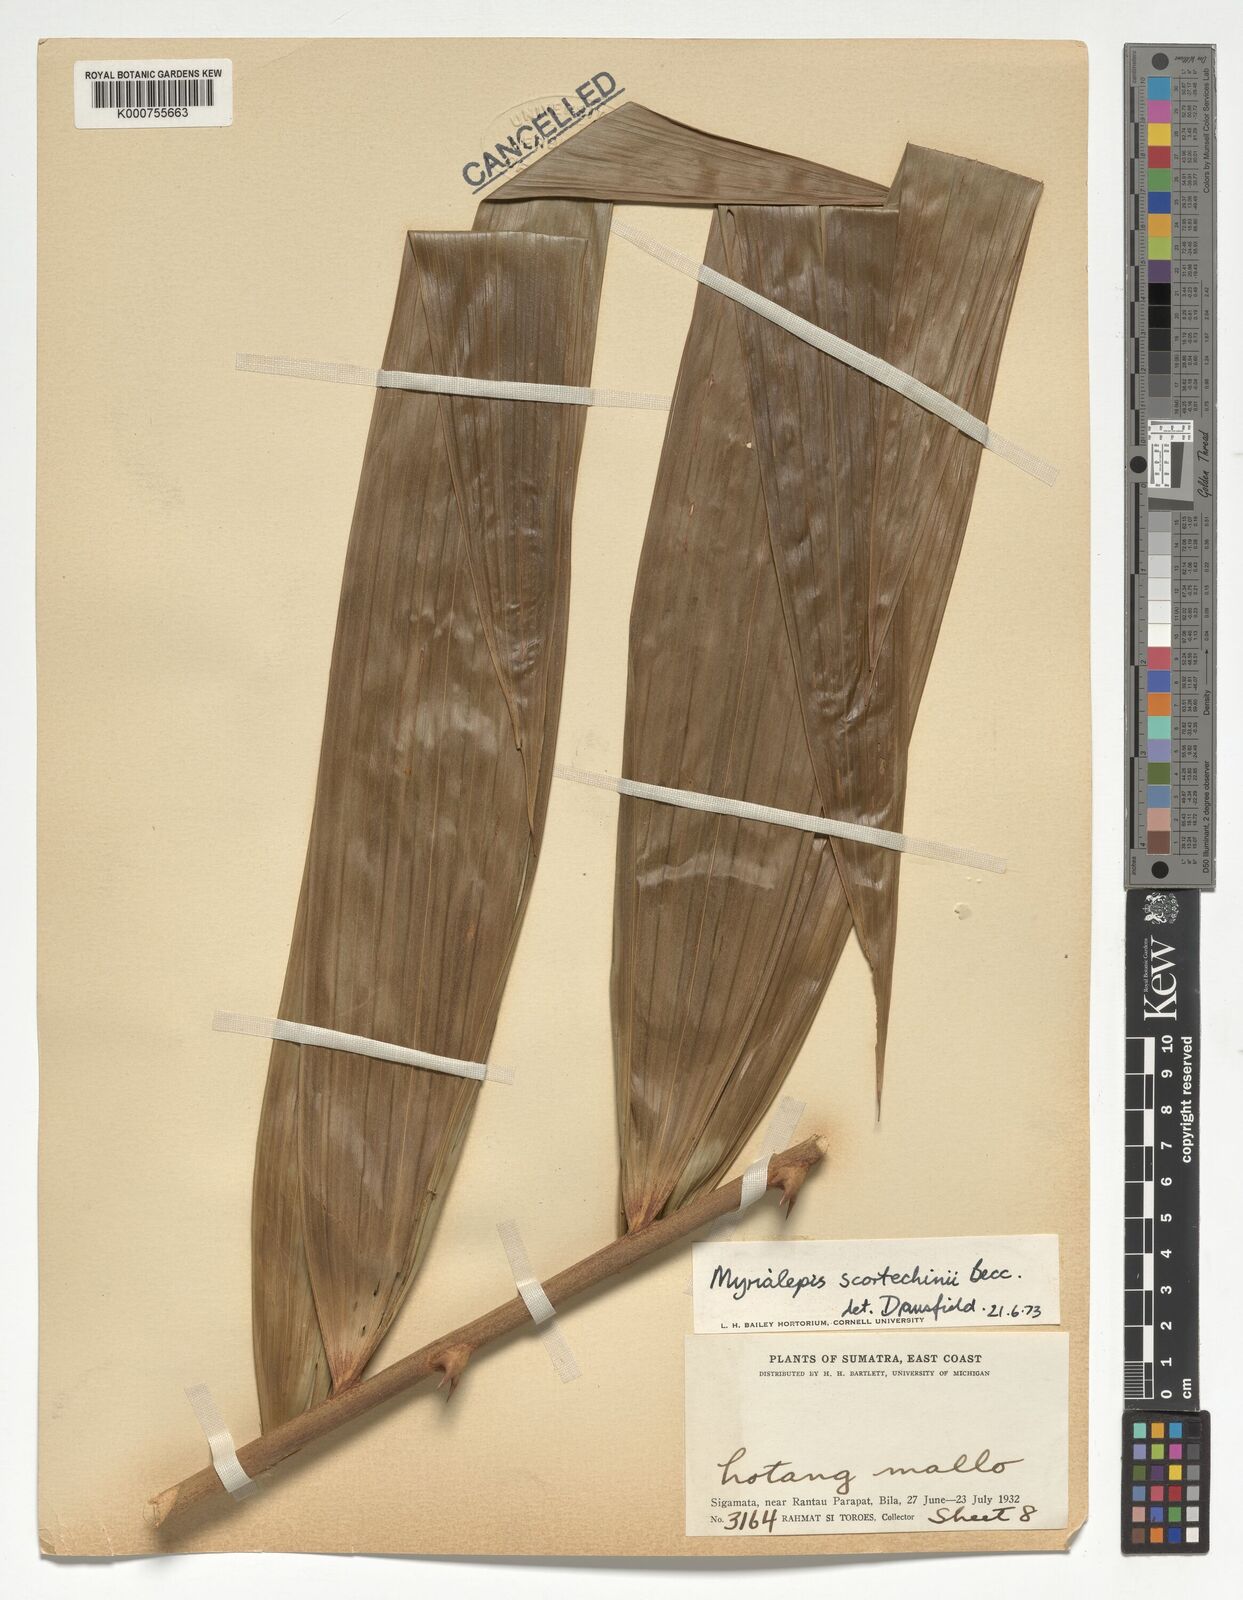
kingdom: Plantae
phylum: Tracheophyta
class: Liliopsida
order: Arecales
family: Arecaceae
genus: Myrialepis
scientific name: Myrialepis paradoxa
